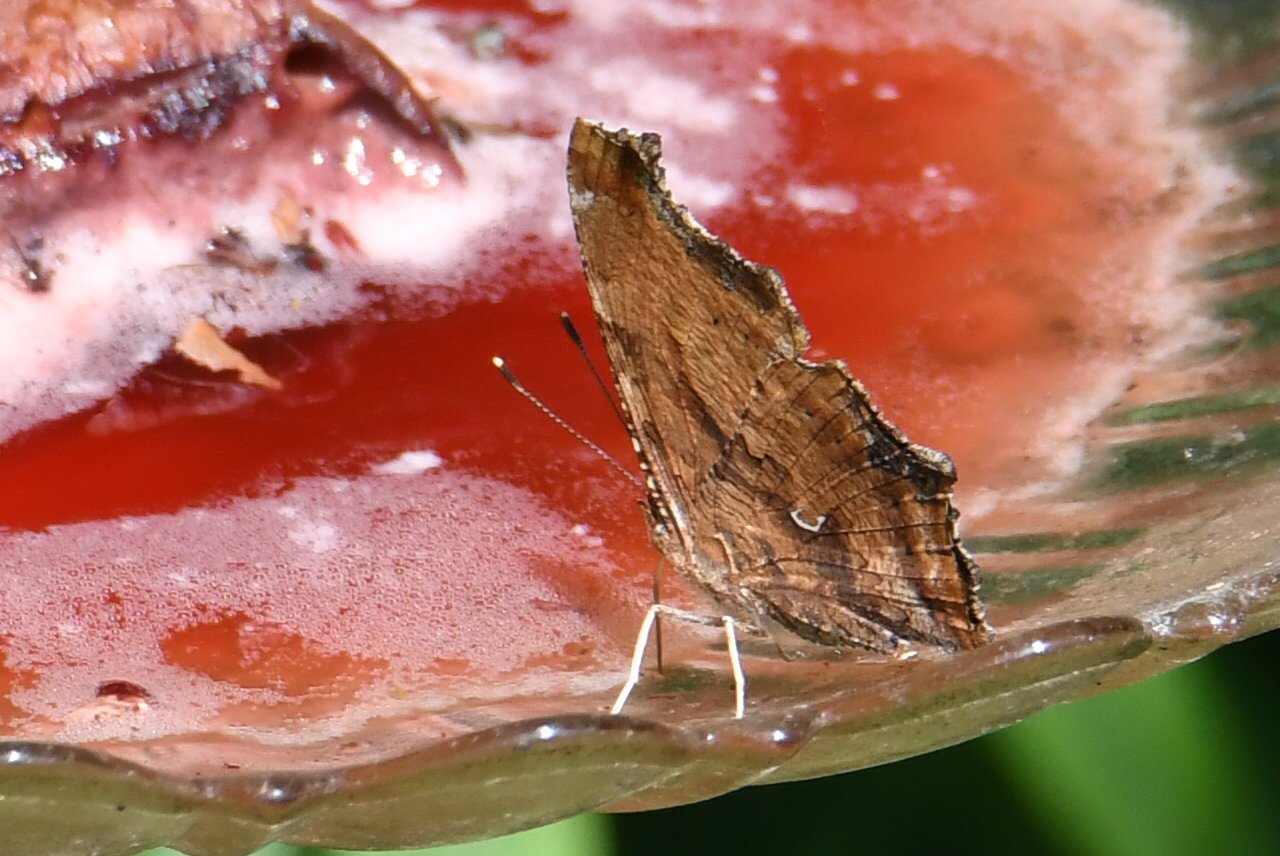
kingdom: Animalia
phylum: Arthropoda
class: Insecta
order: Lepidoptera
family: Nymphalidae
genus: Polygonia
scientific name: Polygonia comma
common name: Eastern Comma
